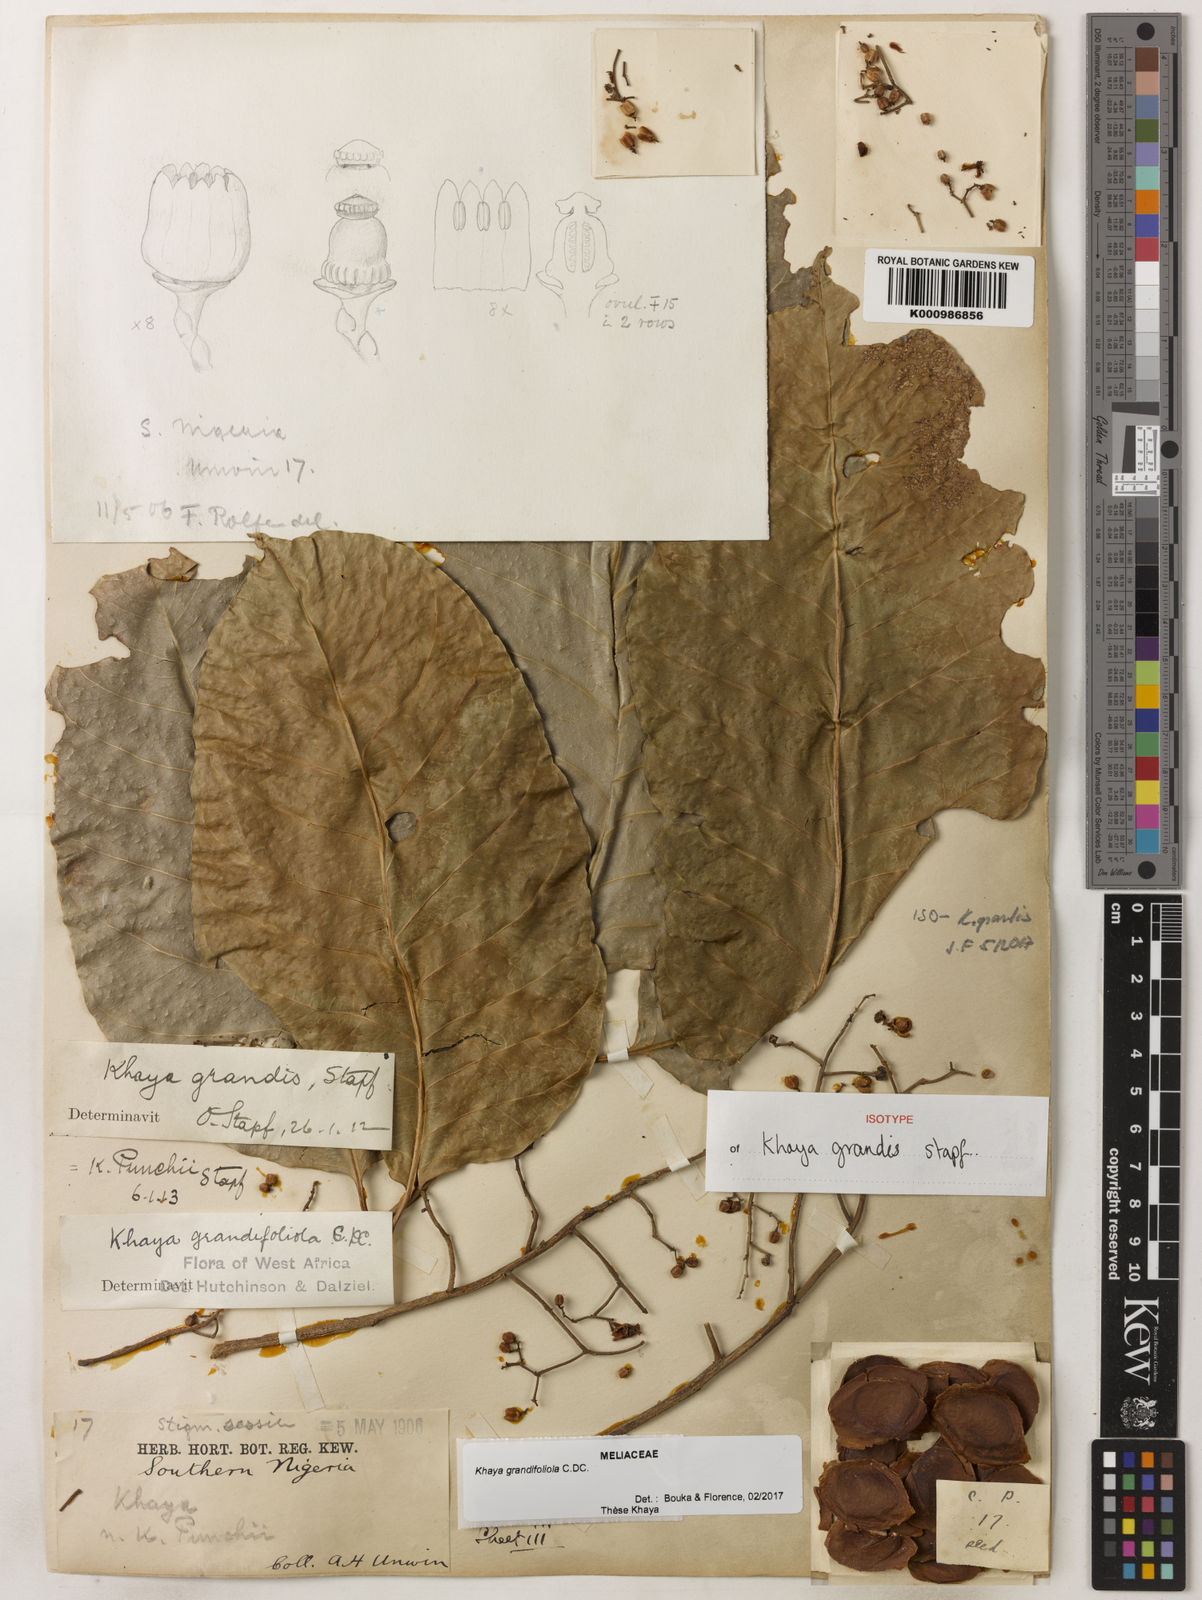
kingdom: Plantae
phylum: Tracheophyta
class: Magnoliopsida
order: Sapindales
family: Meliaceae
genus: Khaya
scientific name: Khaya
